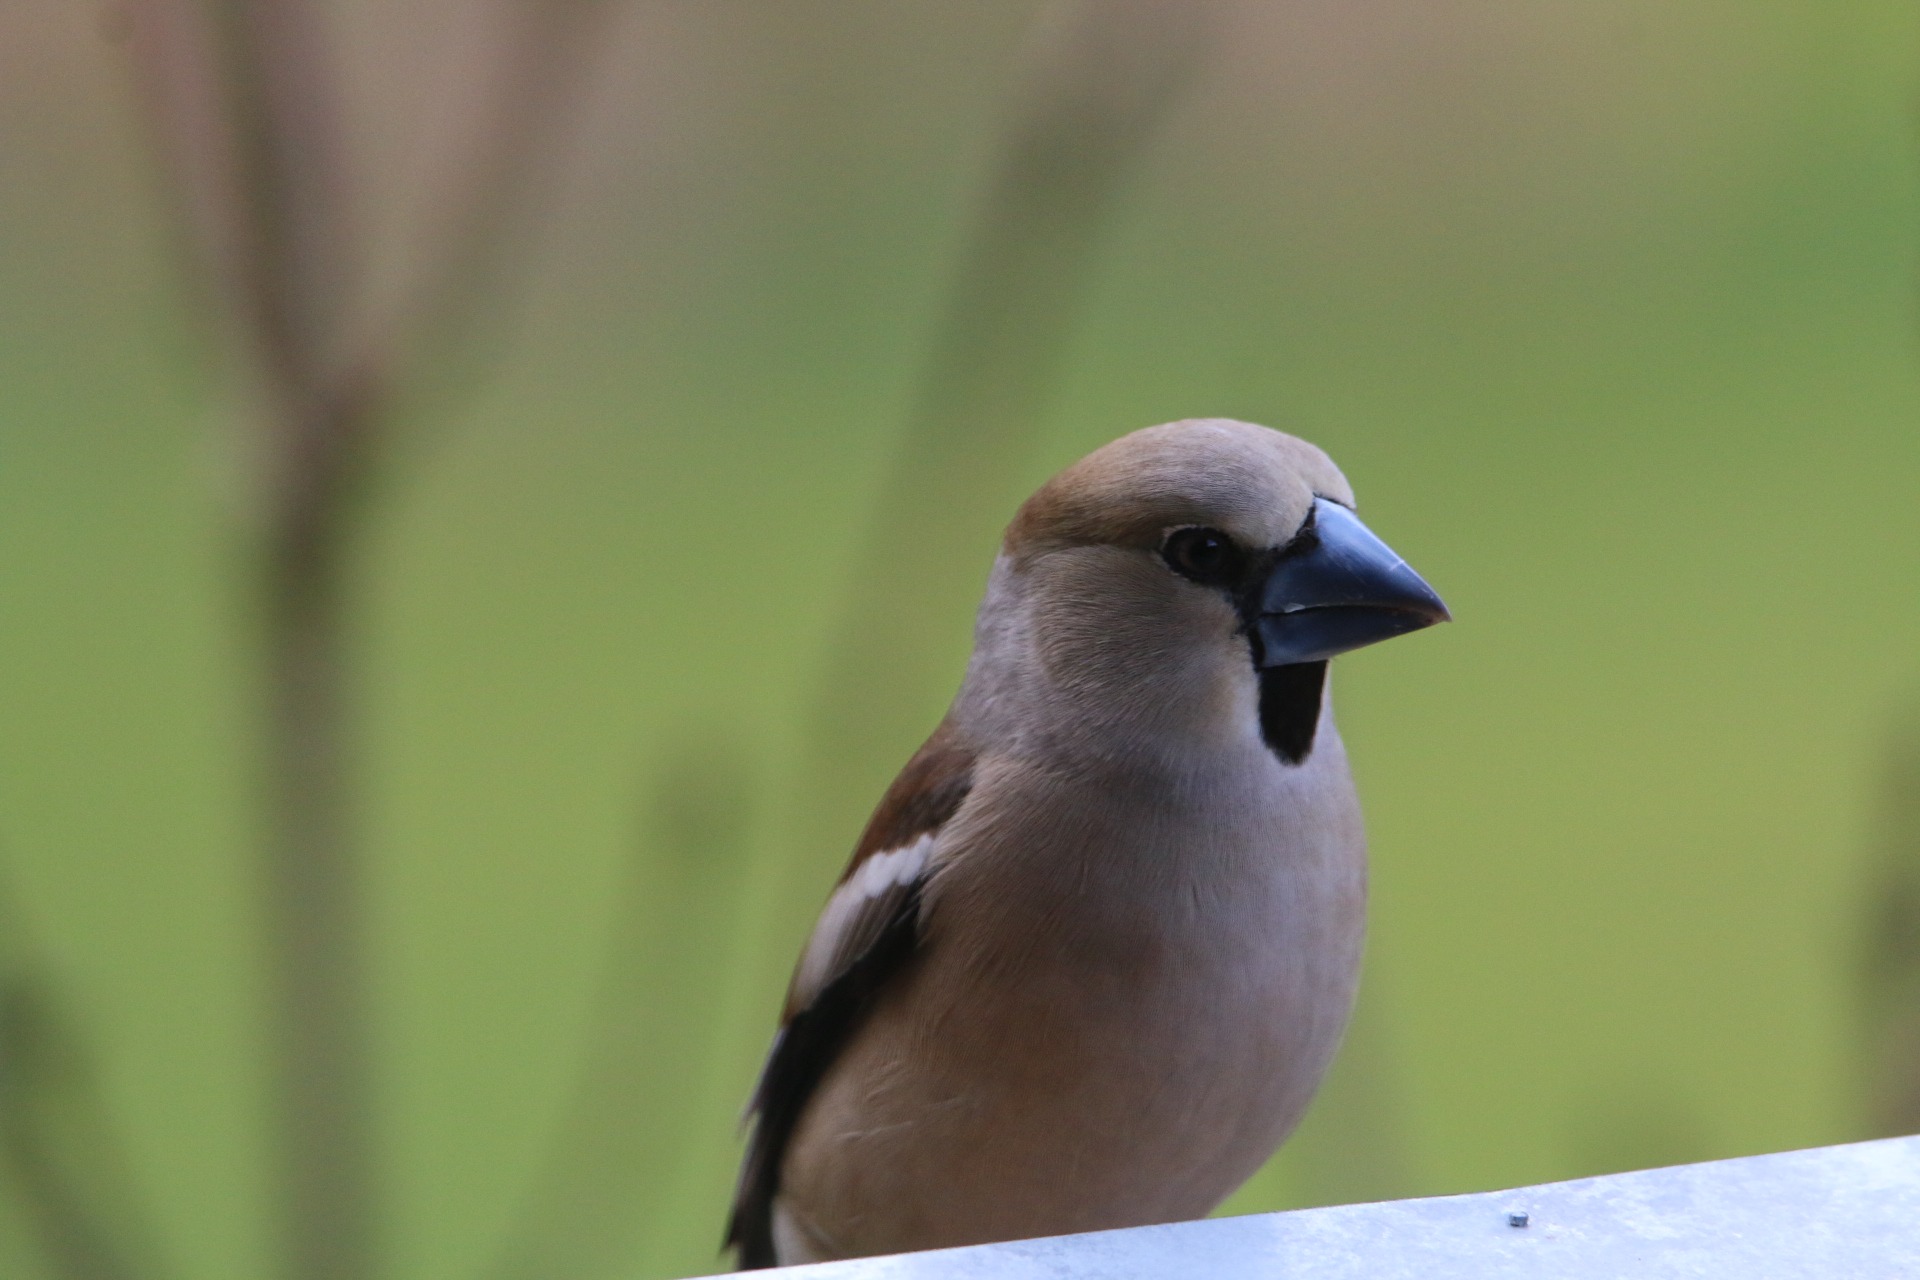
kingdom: Animalia
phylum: Chordata
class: Aves
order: Passeriformes
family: Fringillidae
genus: Coccothraustes
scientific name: Coccothraustes coccothraustes
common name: Kernebider
